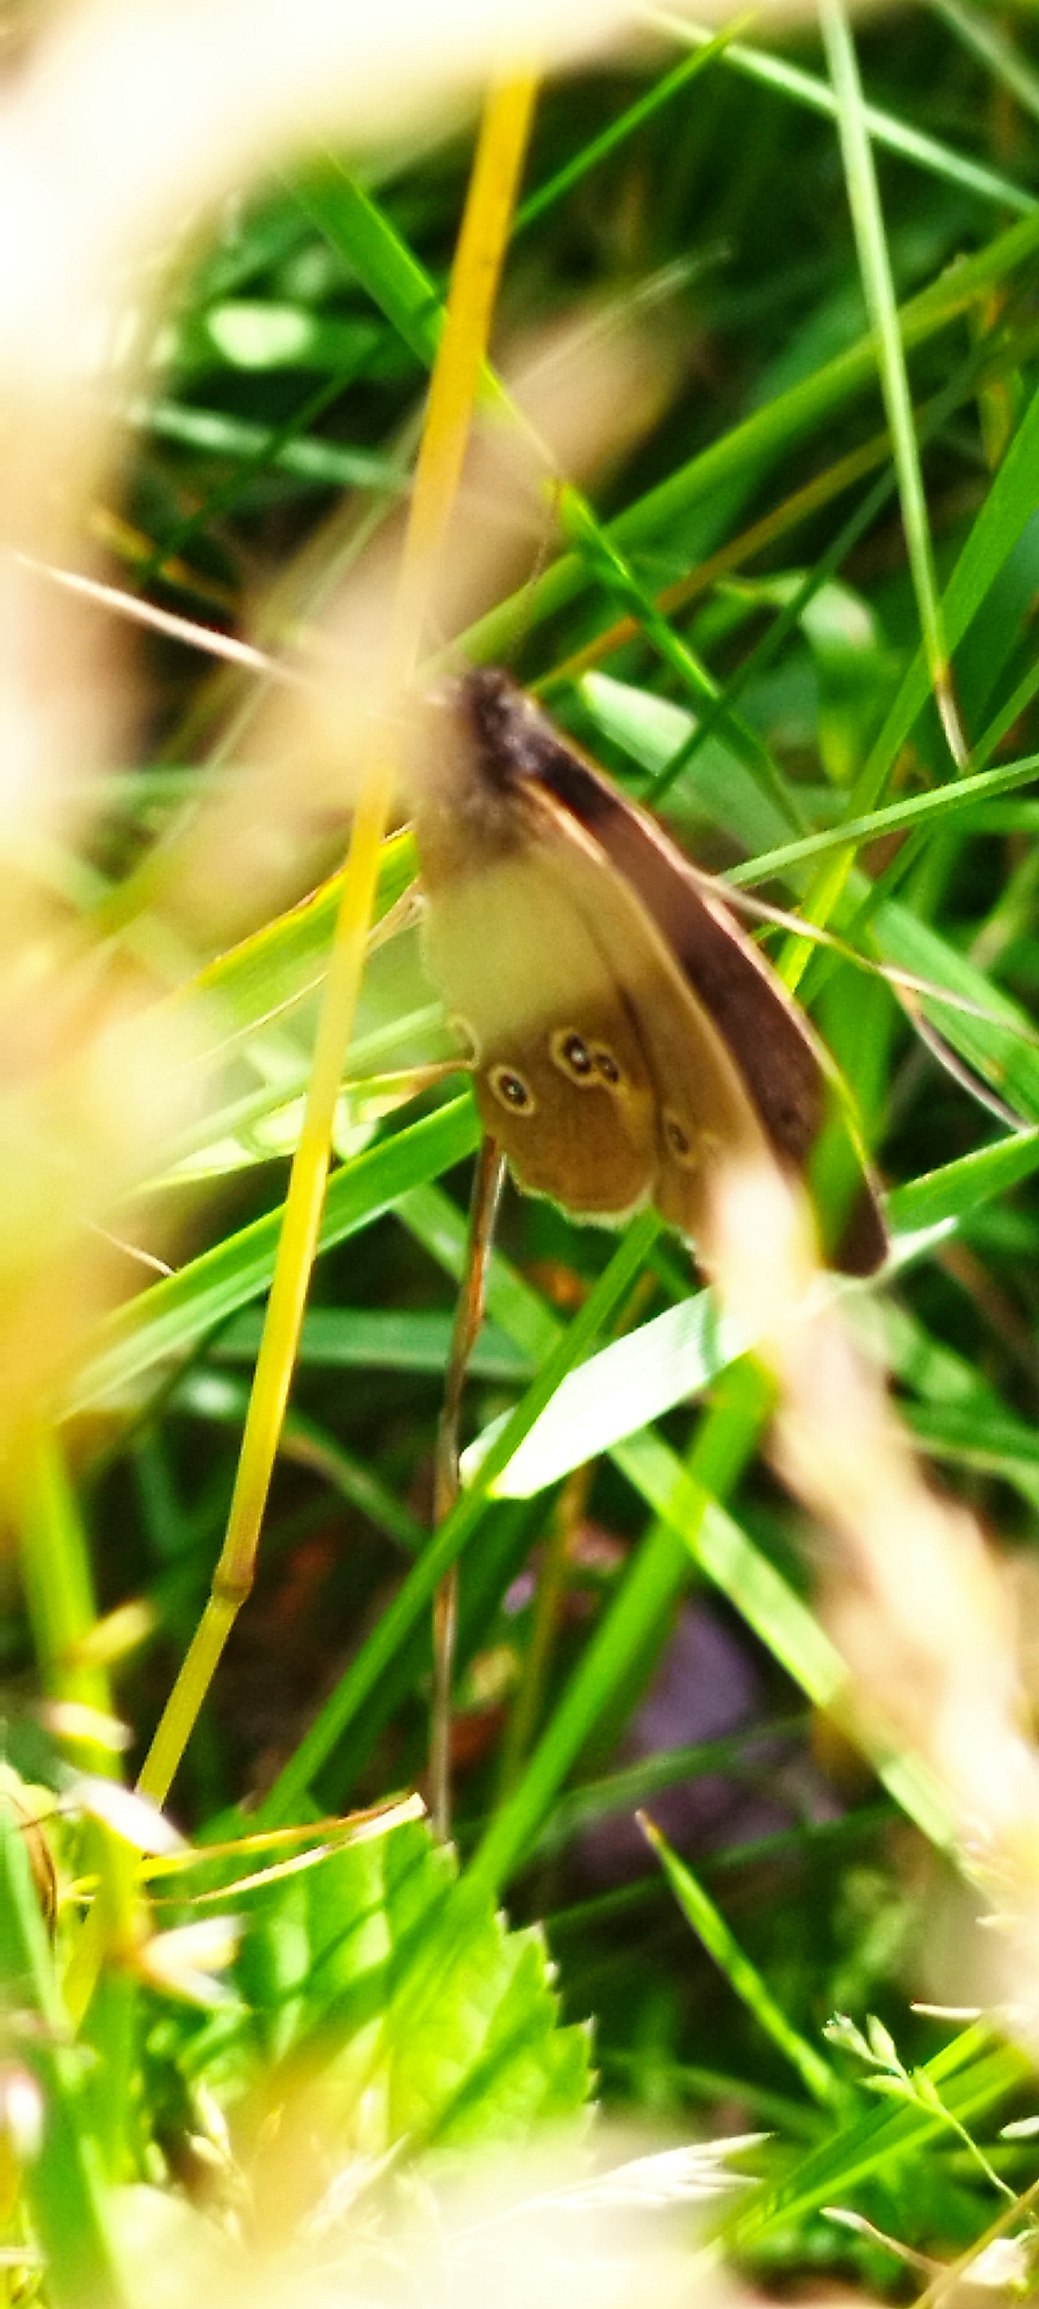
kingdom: Animalia
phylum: Arthropoda
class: Insecta
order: Lepidoptera
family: Nymphalidae
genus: Aphantopus
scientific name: Aphantopus hyperantus
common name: Engrandøje
